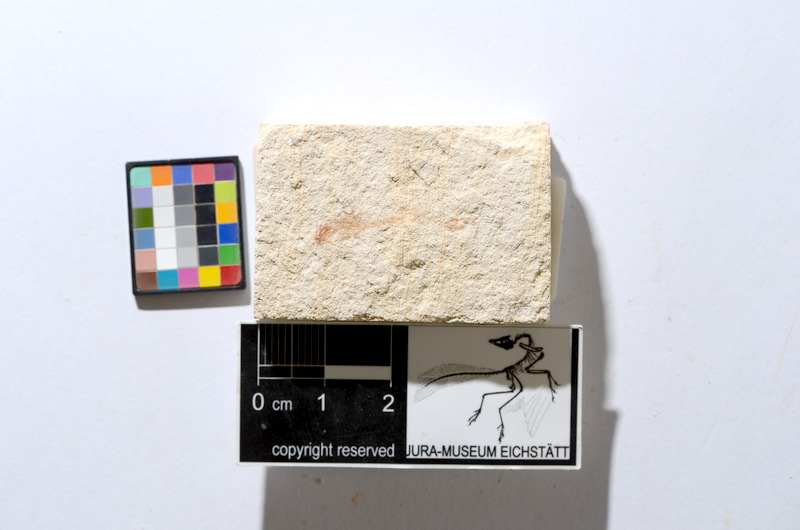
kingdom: Animalia
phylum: Chordata
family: Ascalaboidae
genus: Tharsis
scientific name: Tharsis dubius
